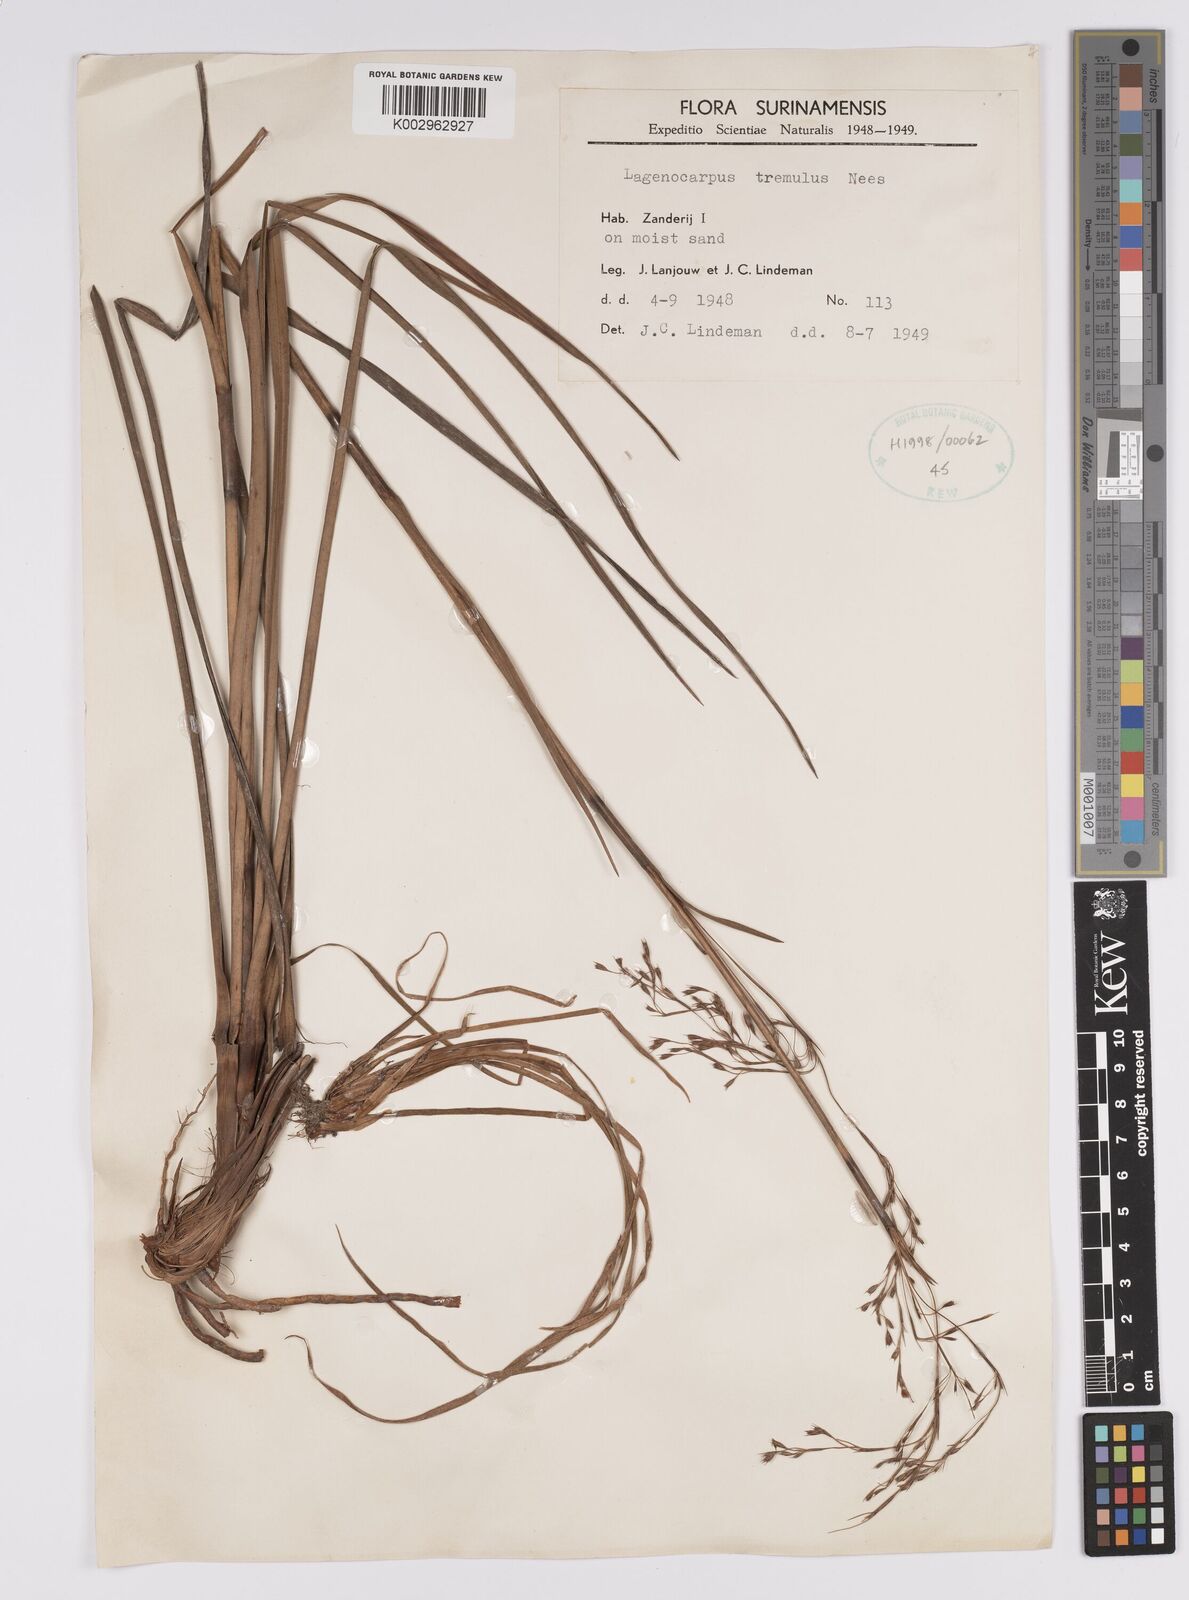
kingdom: Plantae
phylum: Tracheophyta
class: Liliopsida
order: Poales
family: Cyperaceae
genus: Lagenocarpus
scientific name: Lagenocarpus rigidus
